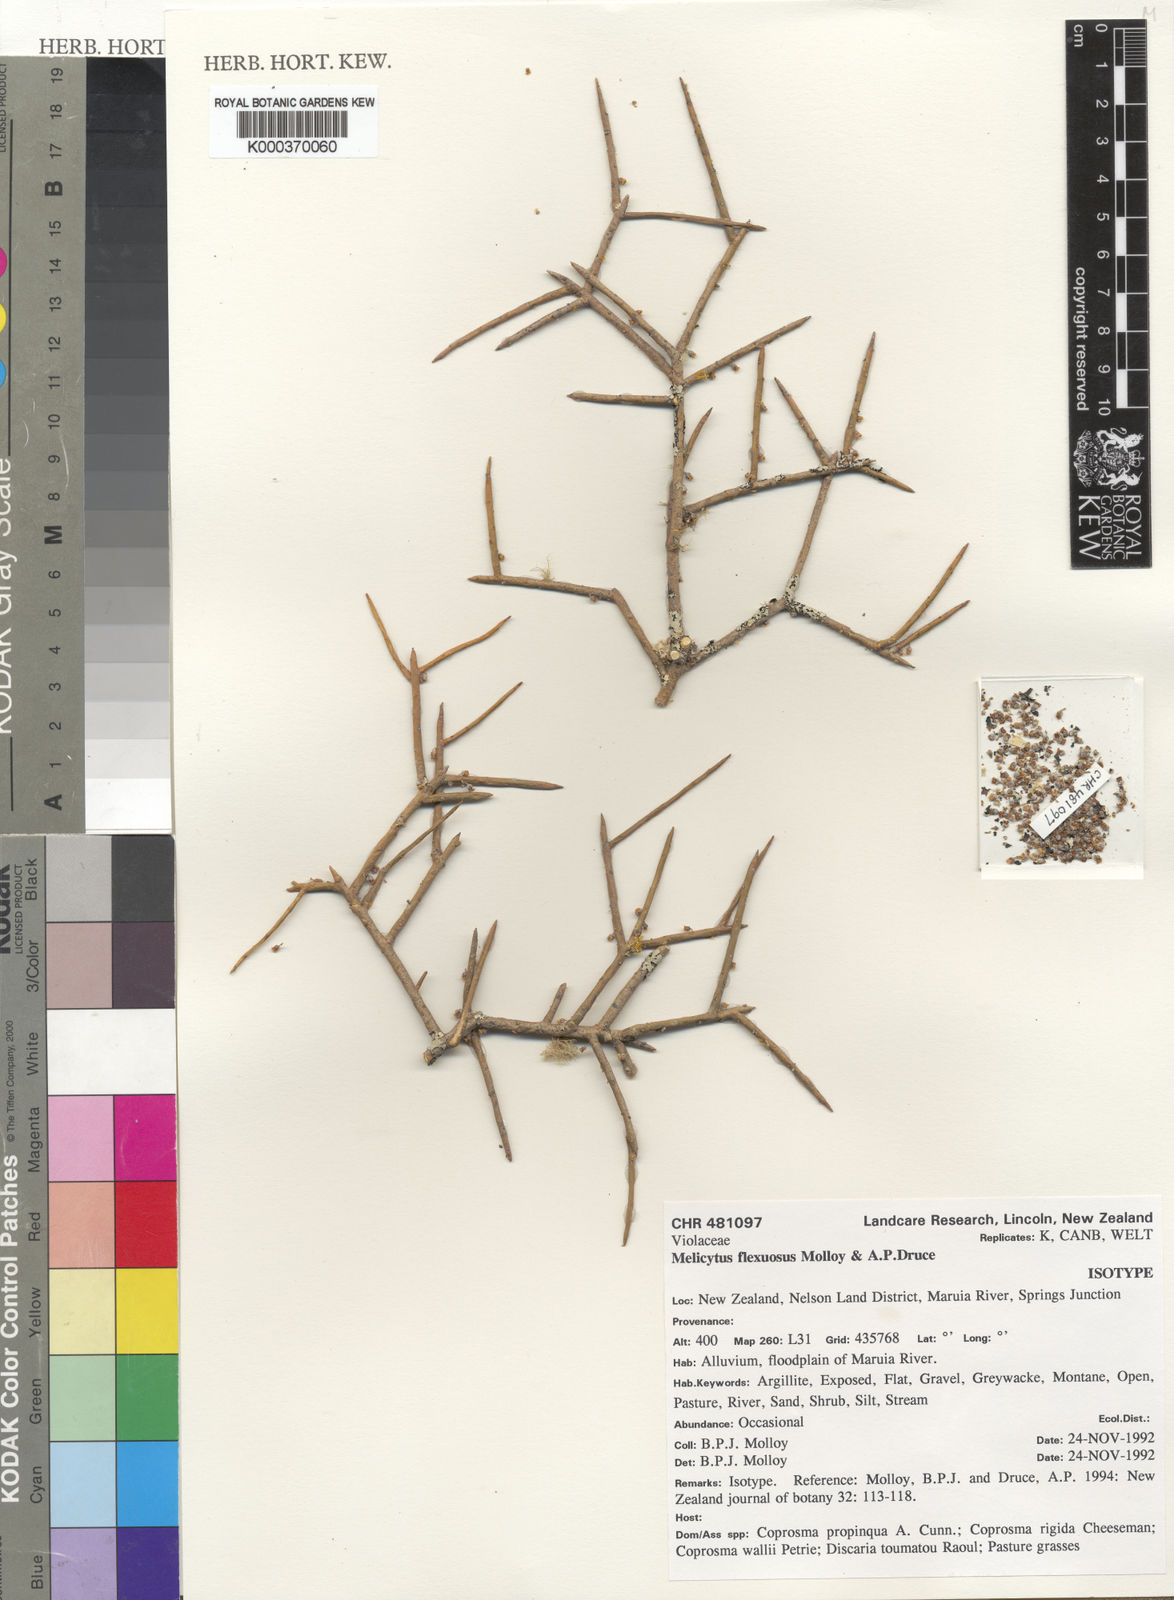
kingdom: Plantae
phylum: Tracheophyta
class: Magnoliopsida
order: Malpighiales
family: Violaceae
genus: Melicytus
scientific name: Melicytus flexuosus
